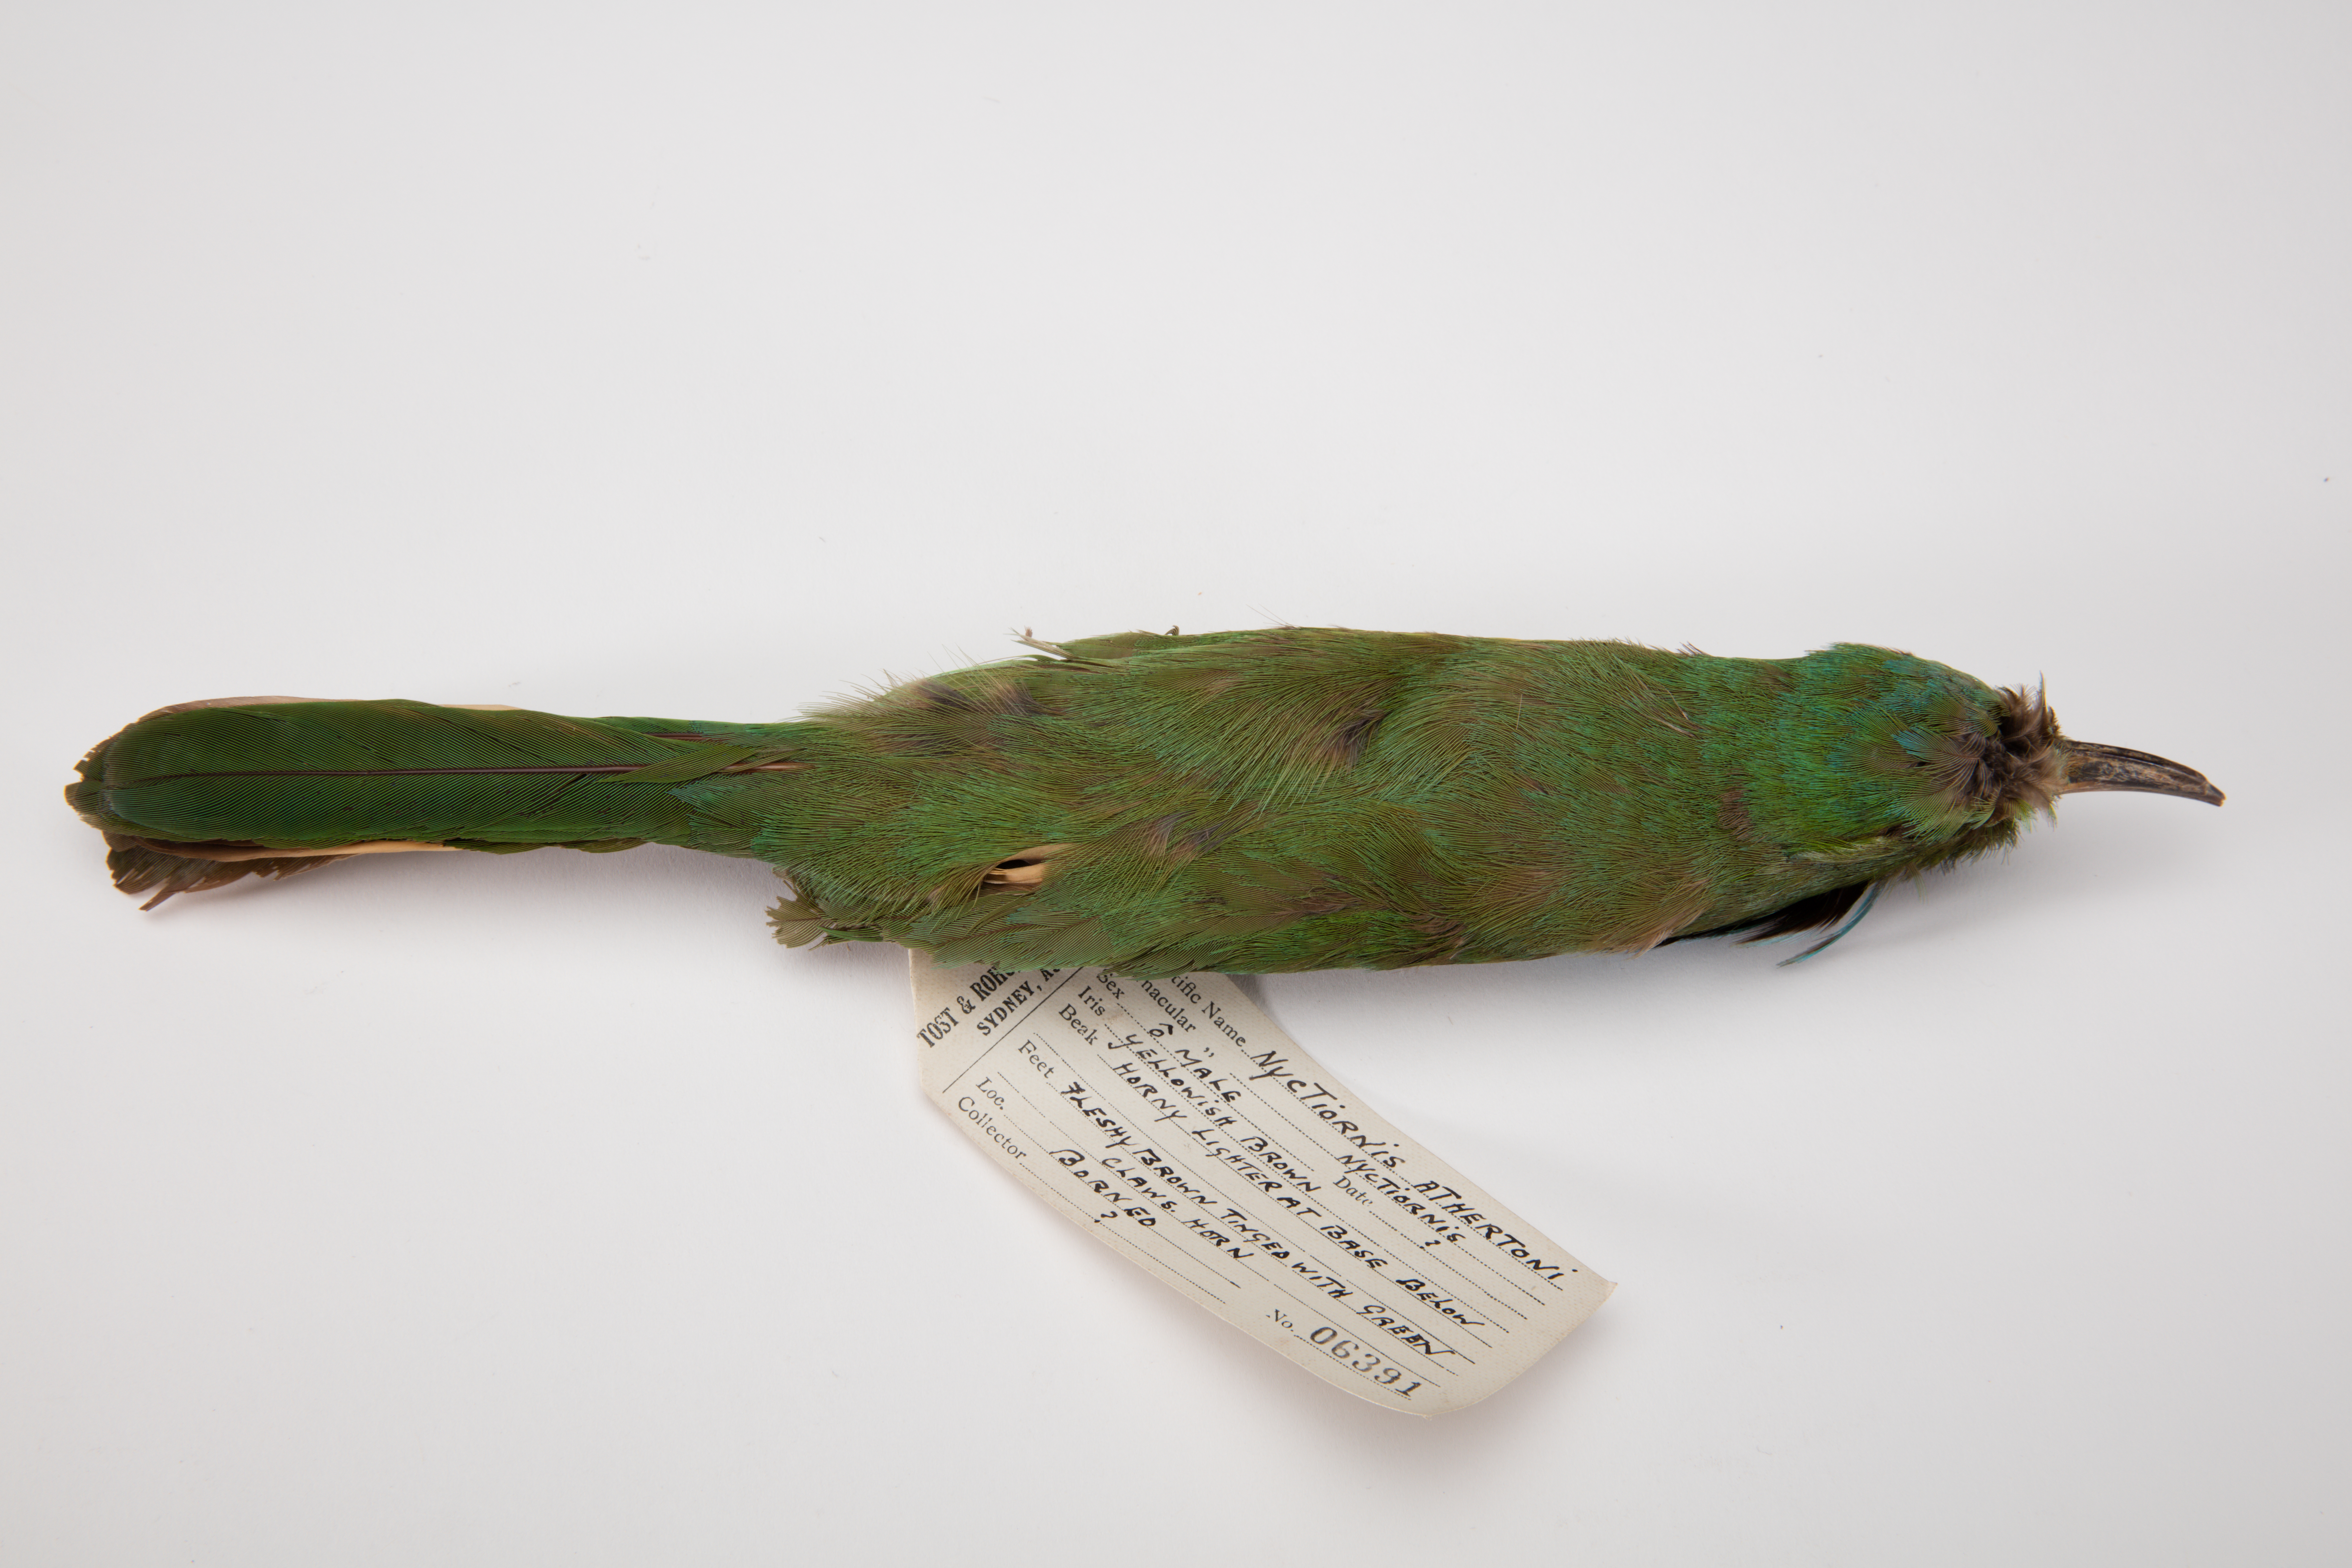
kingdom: Animalia
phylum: Chordata
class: Aves
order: Coraciiformes
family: Meropidae
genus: Nyctyornis
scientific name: Nyctyornis athertoni
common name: Blue-bearded bee-eater
